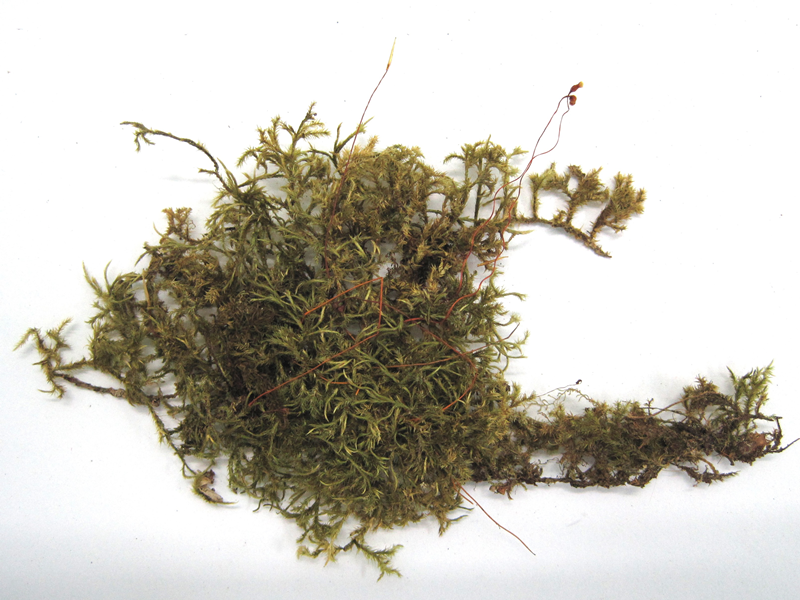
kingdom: Plantae
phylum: Bryophyta
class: Bryopsida
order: Hypnales
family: Pylaisiadelphaceae
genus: Trismegistia
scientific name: Trismegistia lancifolia
